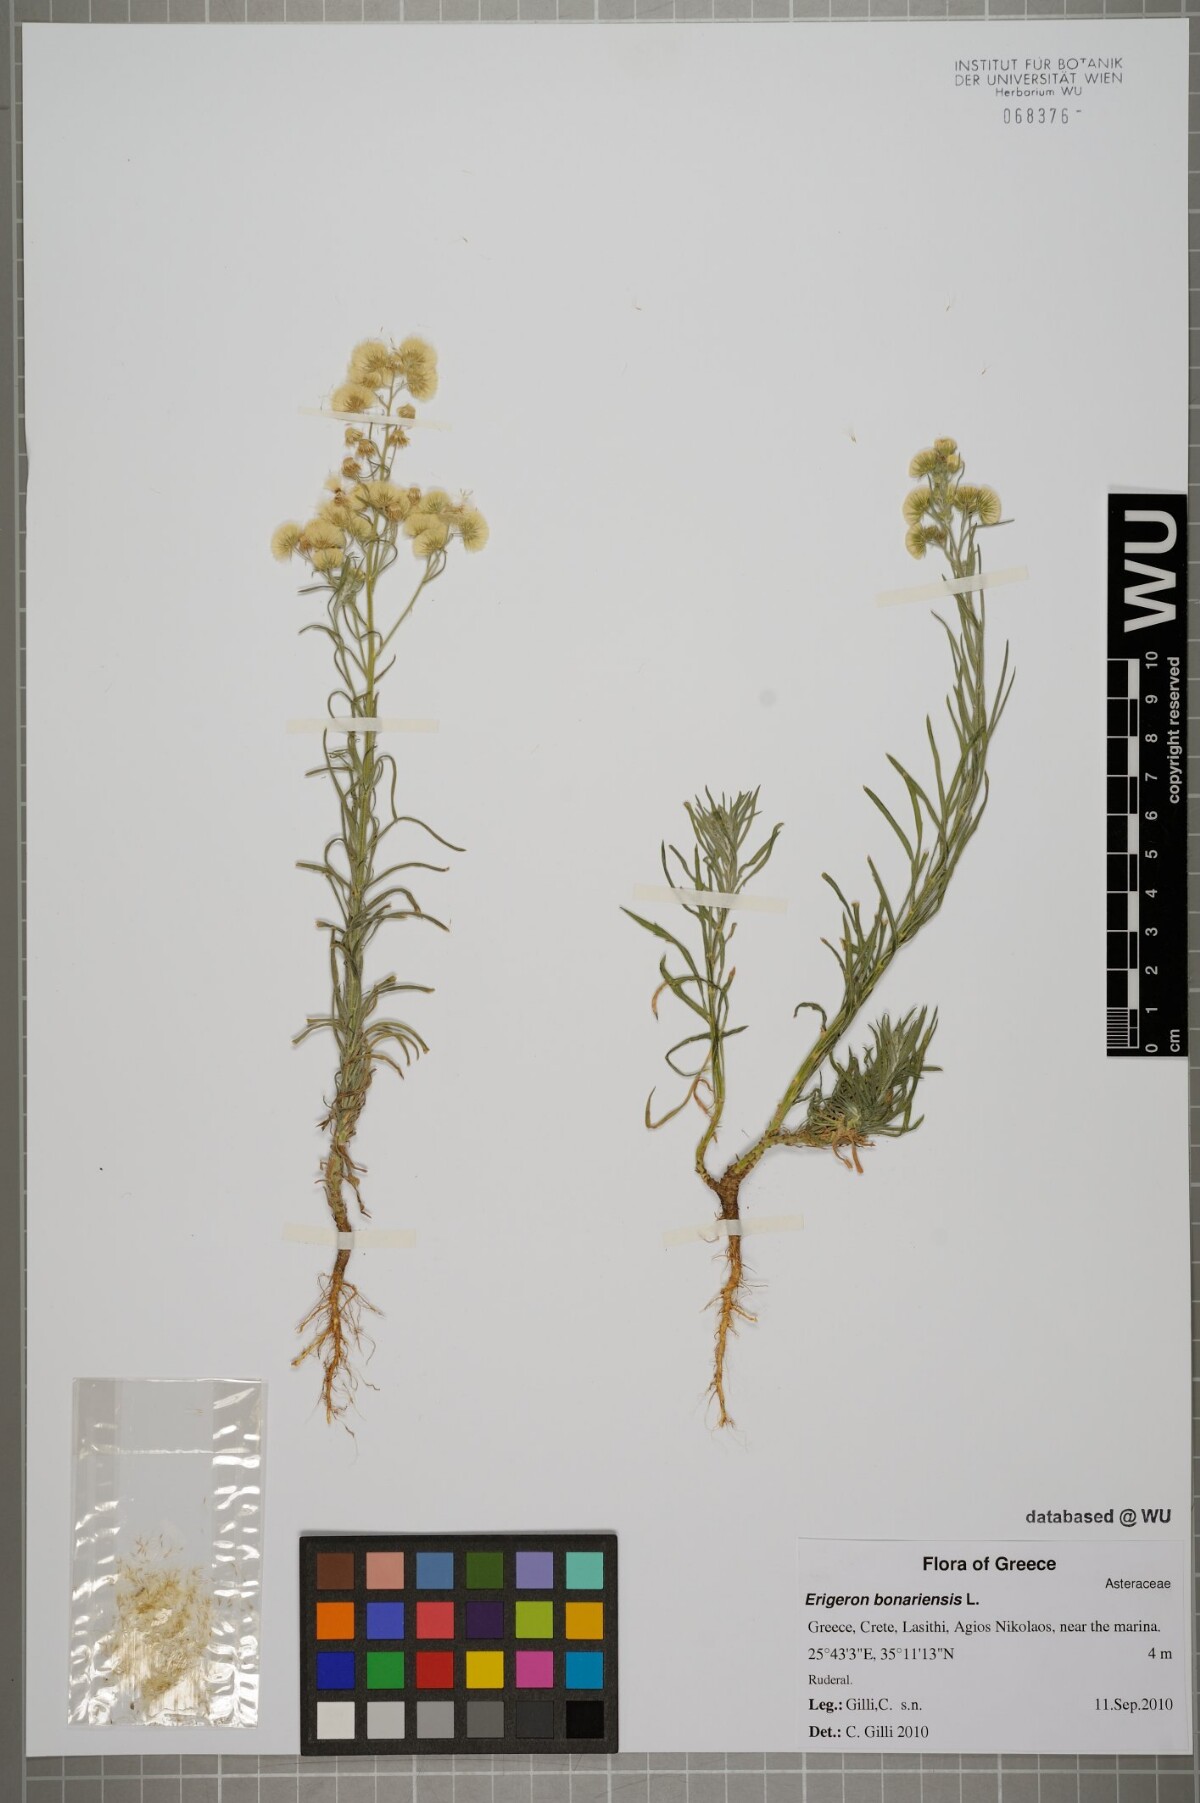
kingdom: Plantae
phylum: Tracheophyta
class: Magnoliopsida
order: Asterales
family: Asteraceae
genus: Erigeron
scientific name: Erigeron bonariensis
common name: Argentine fleabane
